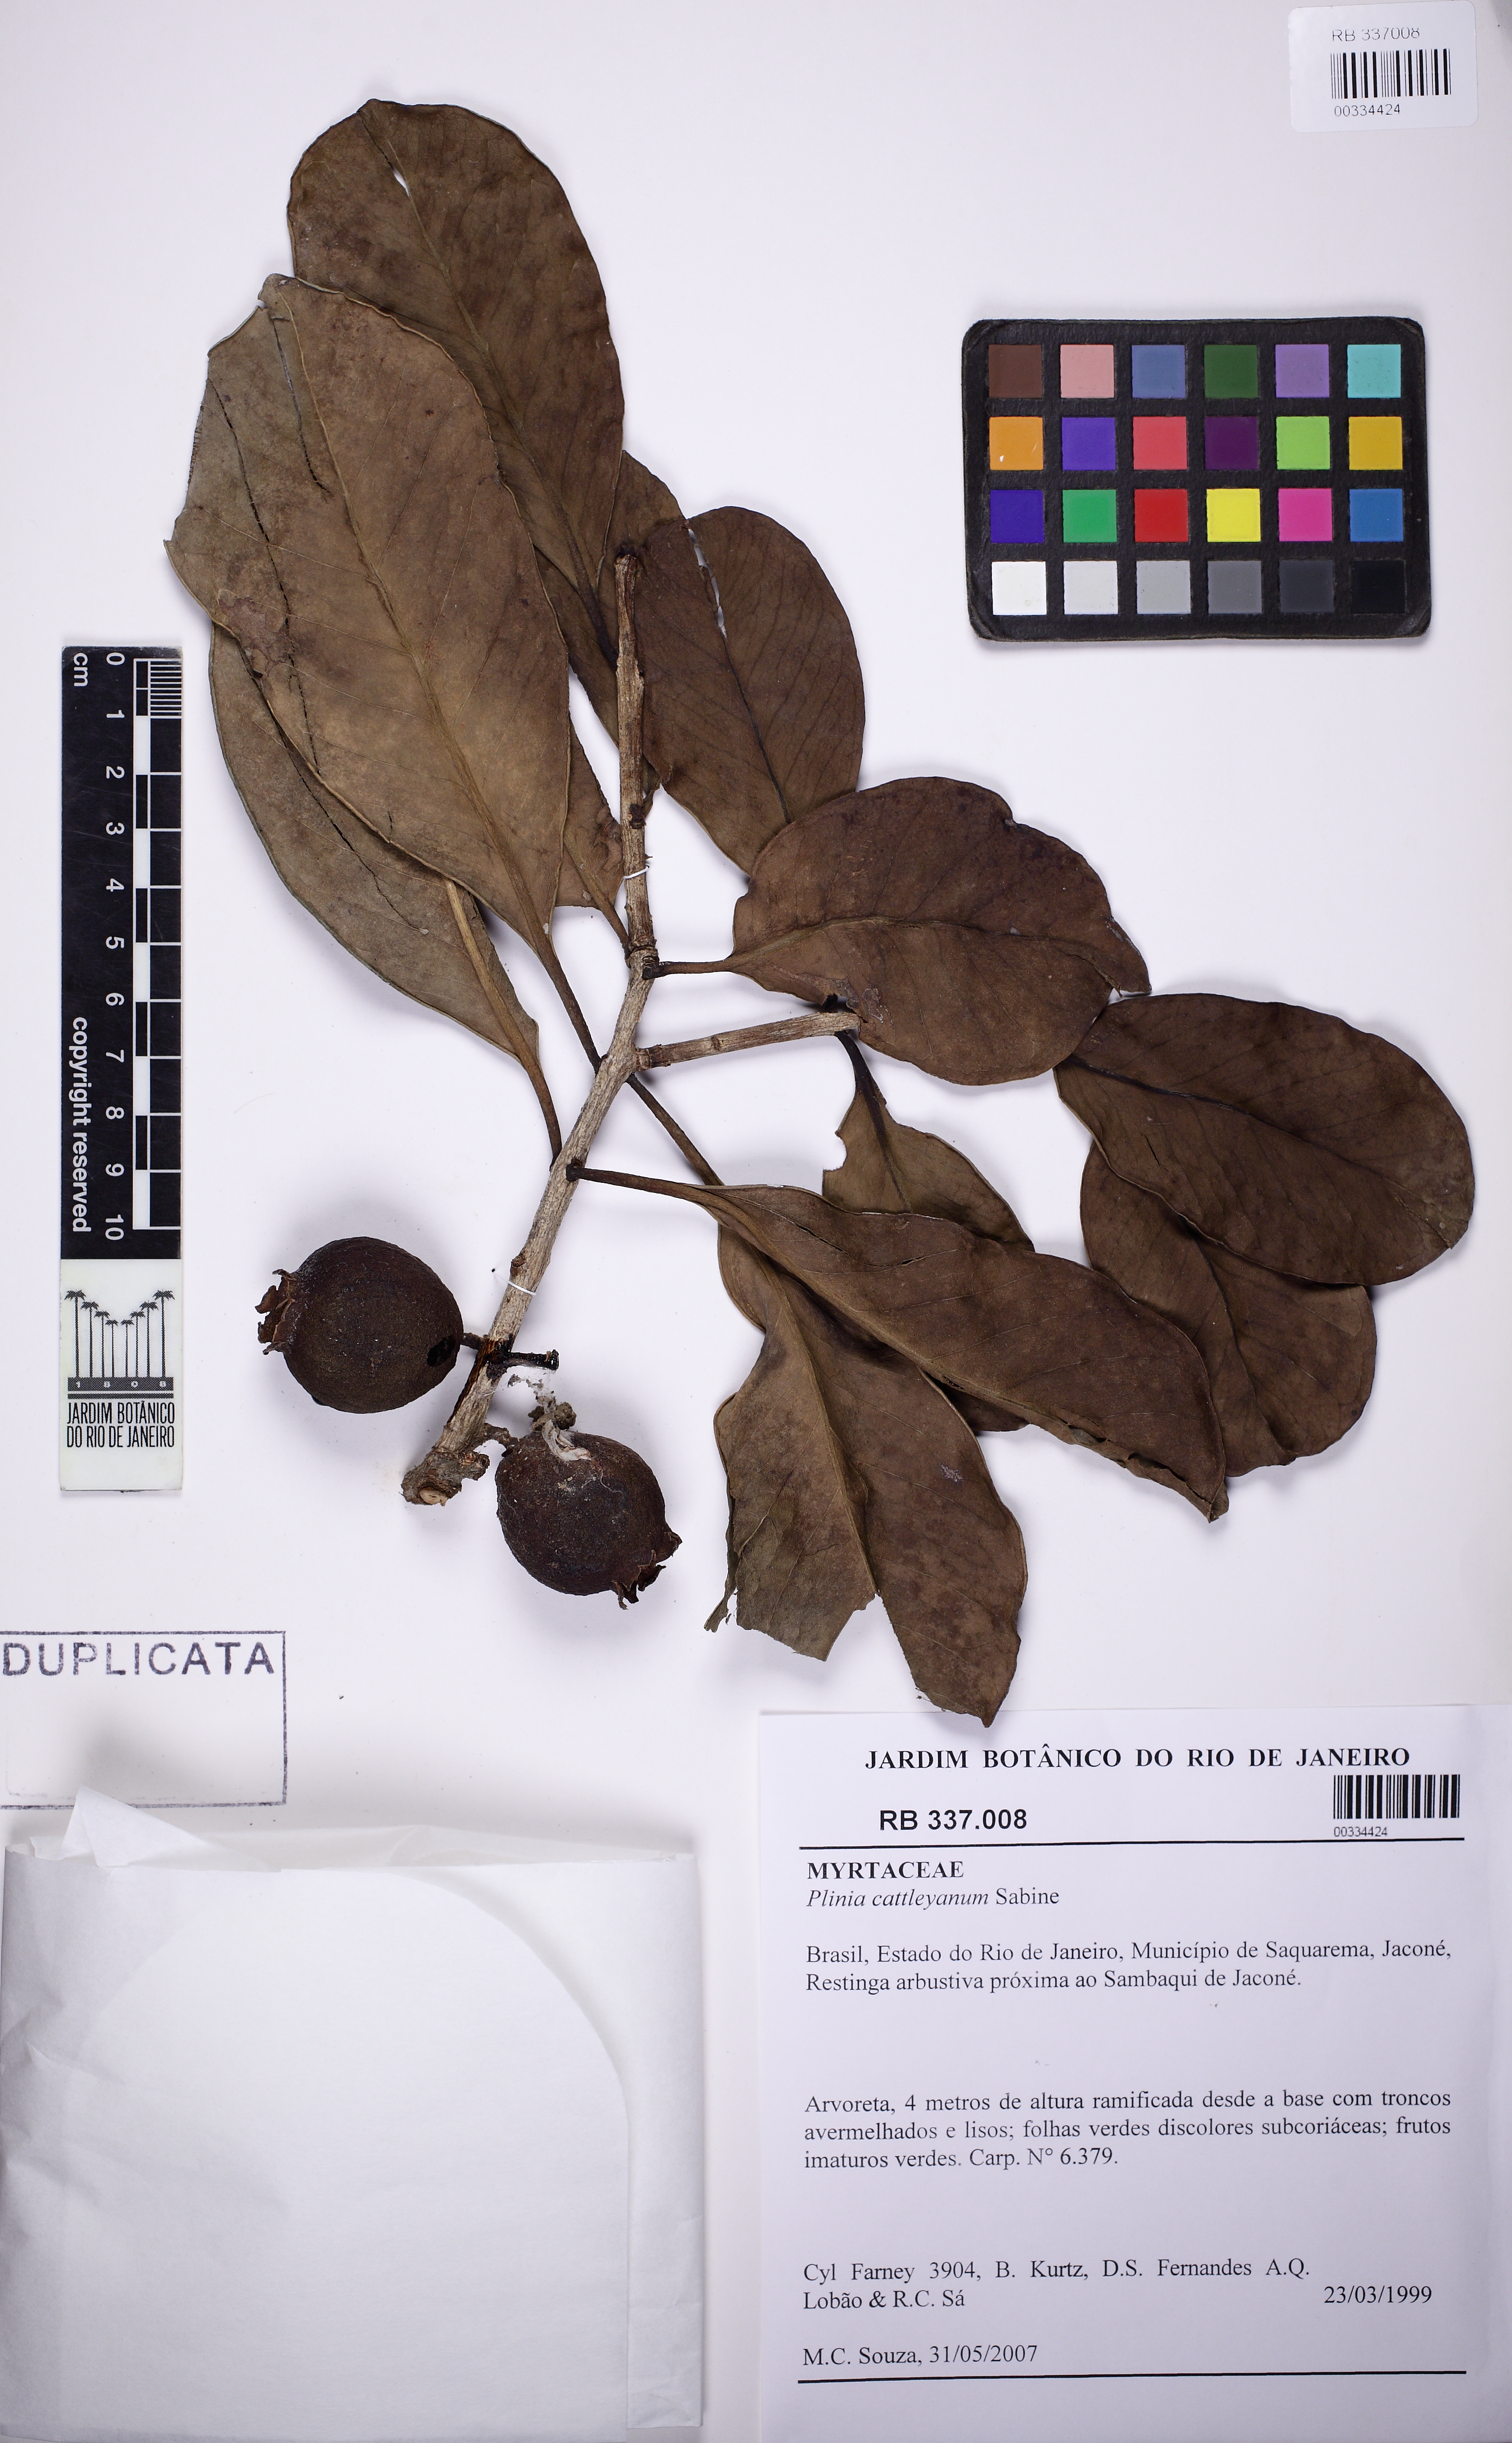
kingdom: Plantae
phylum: Tracheophyta
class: Magnoliopsida
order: Myrtales
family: Myrtaceae
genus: Psidium
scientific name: Psidium cattleianum
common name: Strawberry guava
